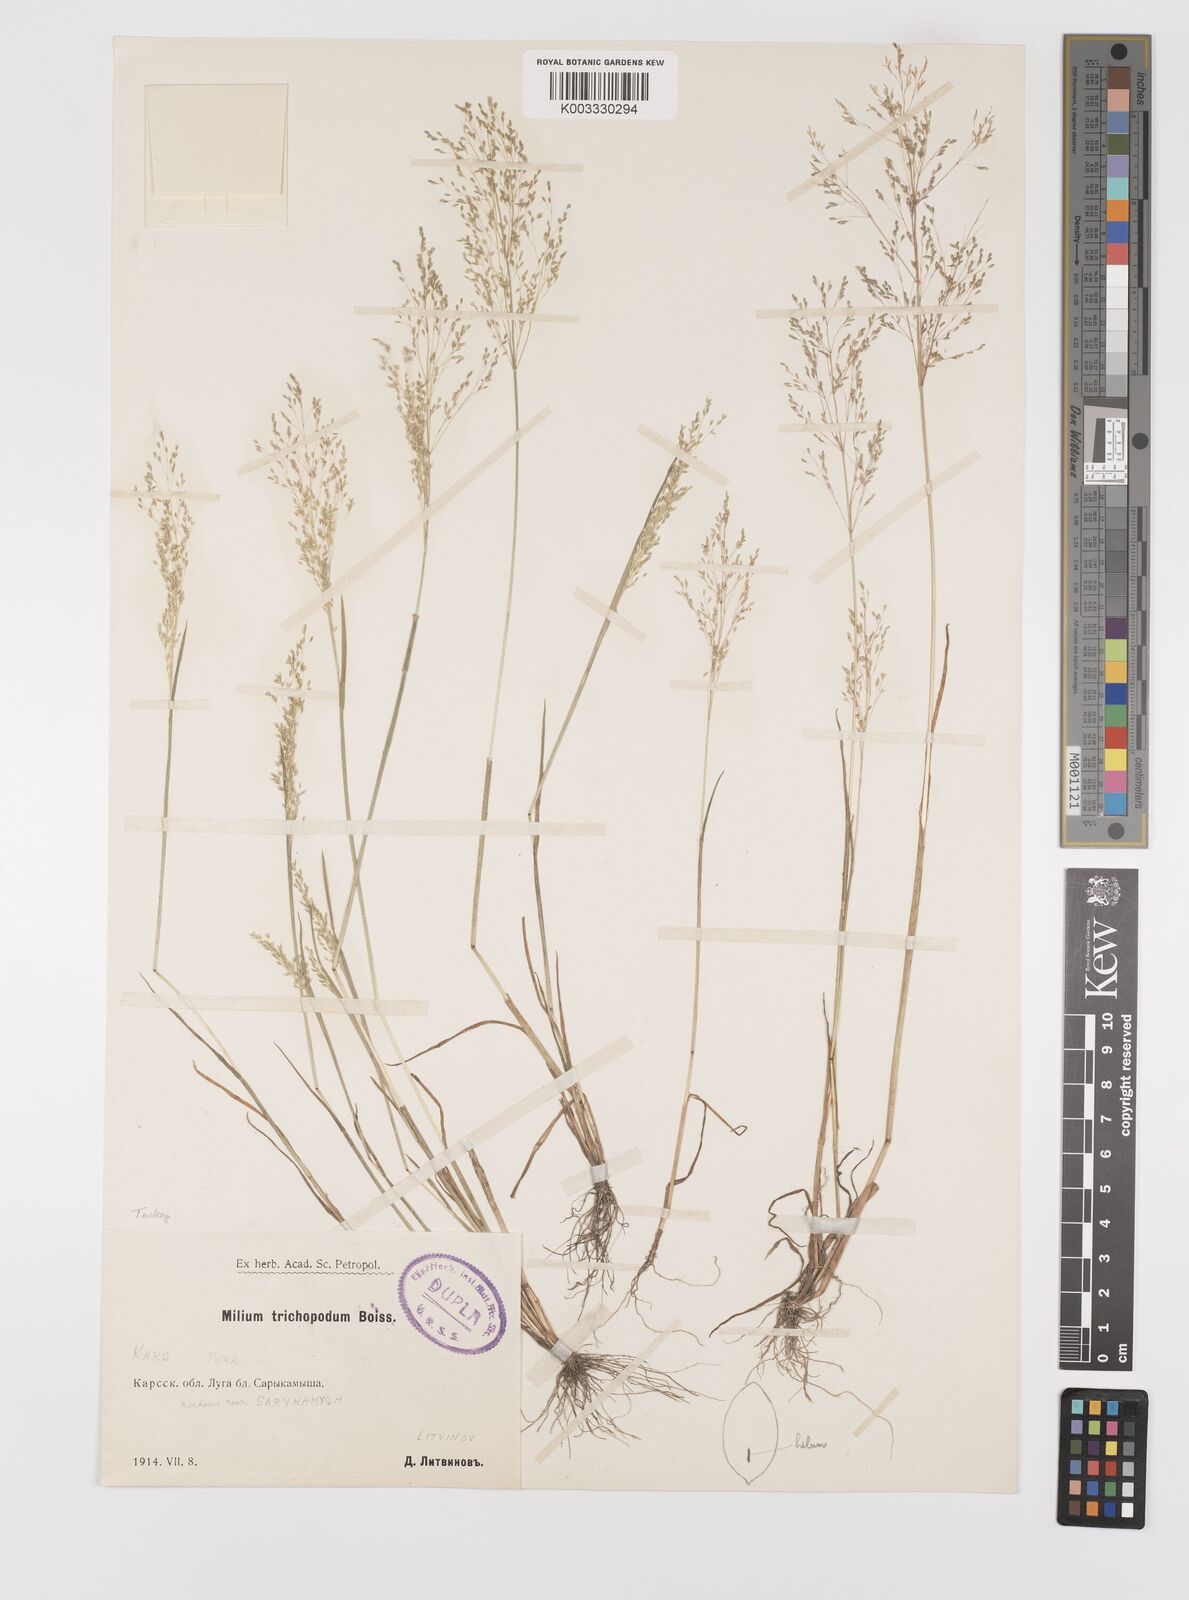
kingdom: Plantae
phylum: Tracheophyta
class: Liliopsida
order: Poales
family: Poaceae
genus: Colpodium
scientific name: Colpodium pisidicum
